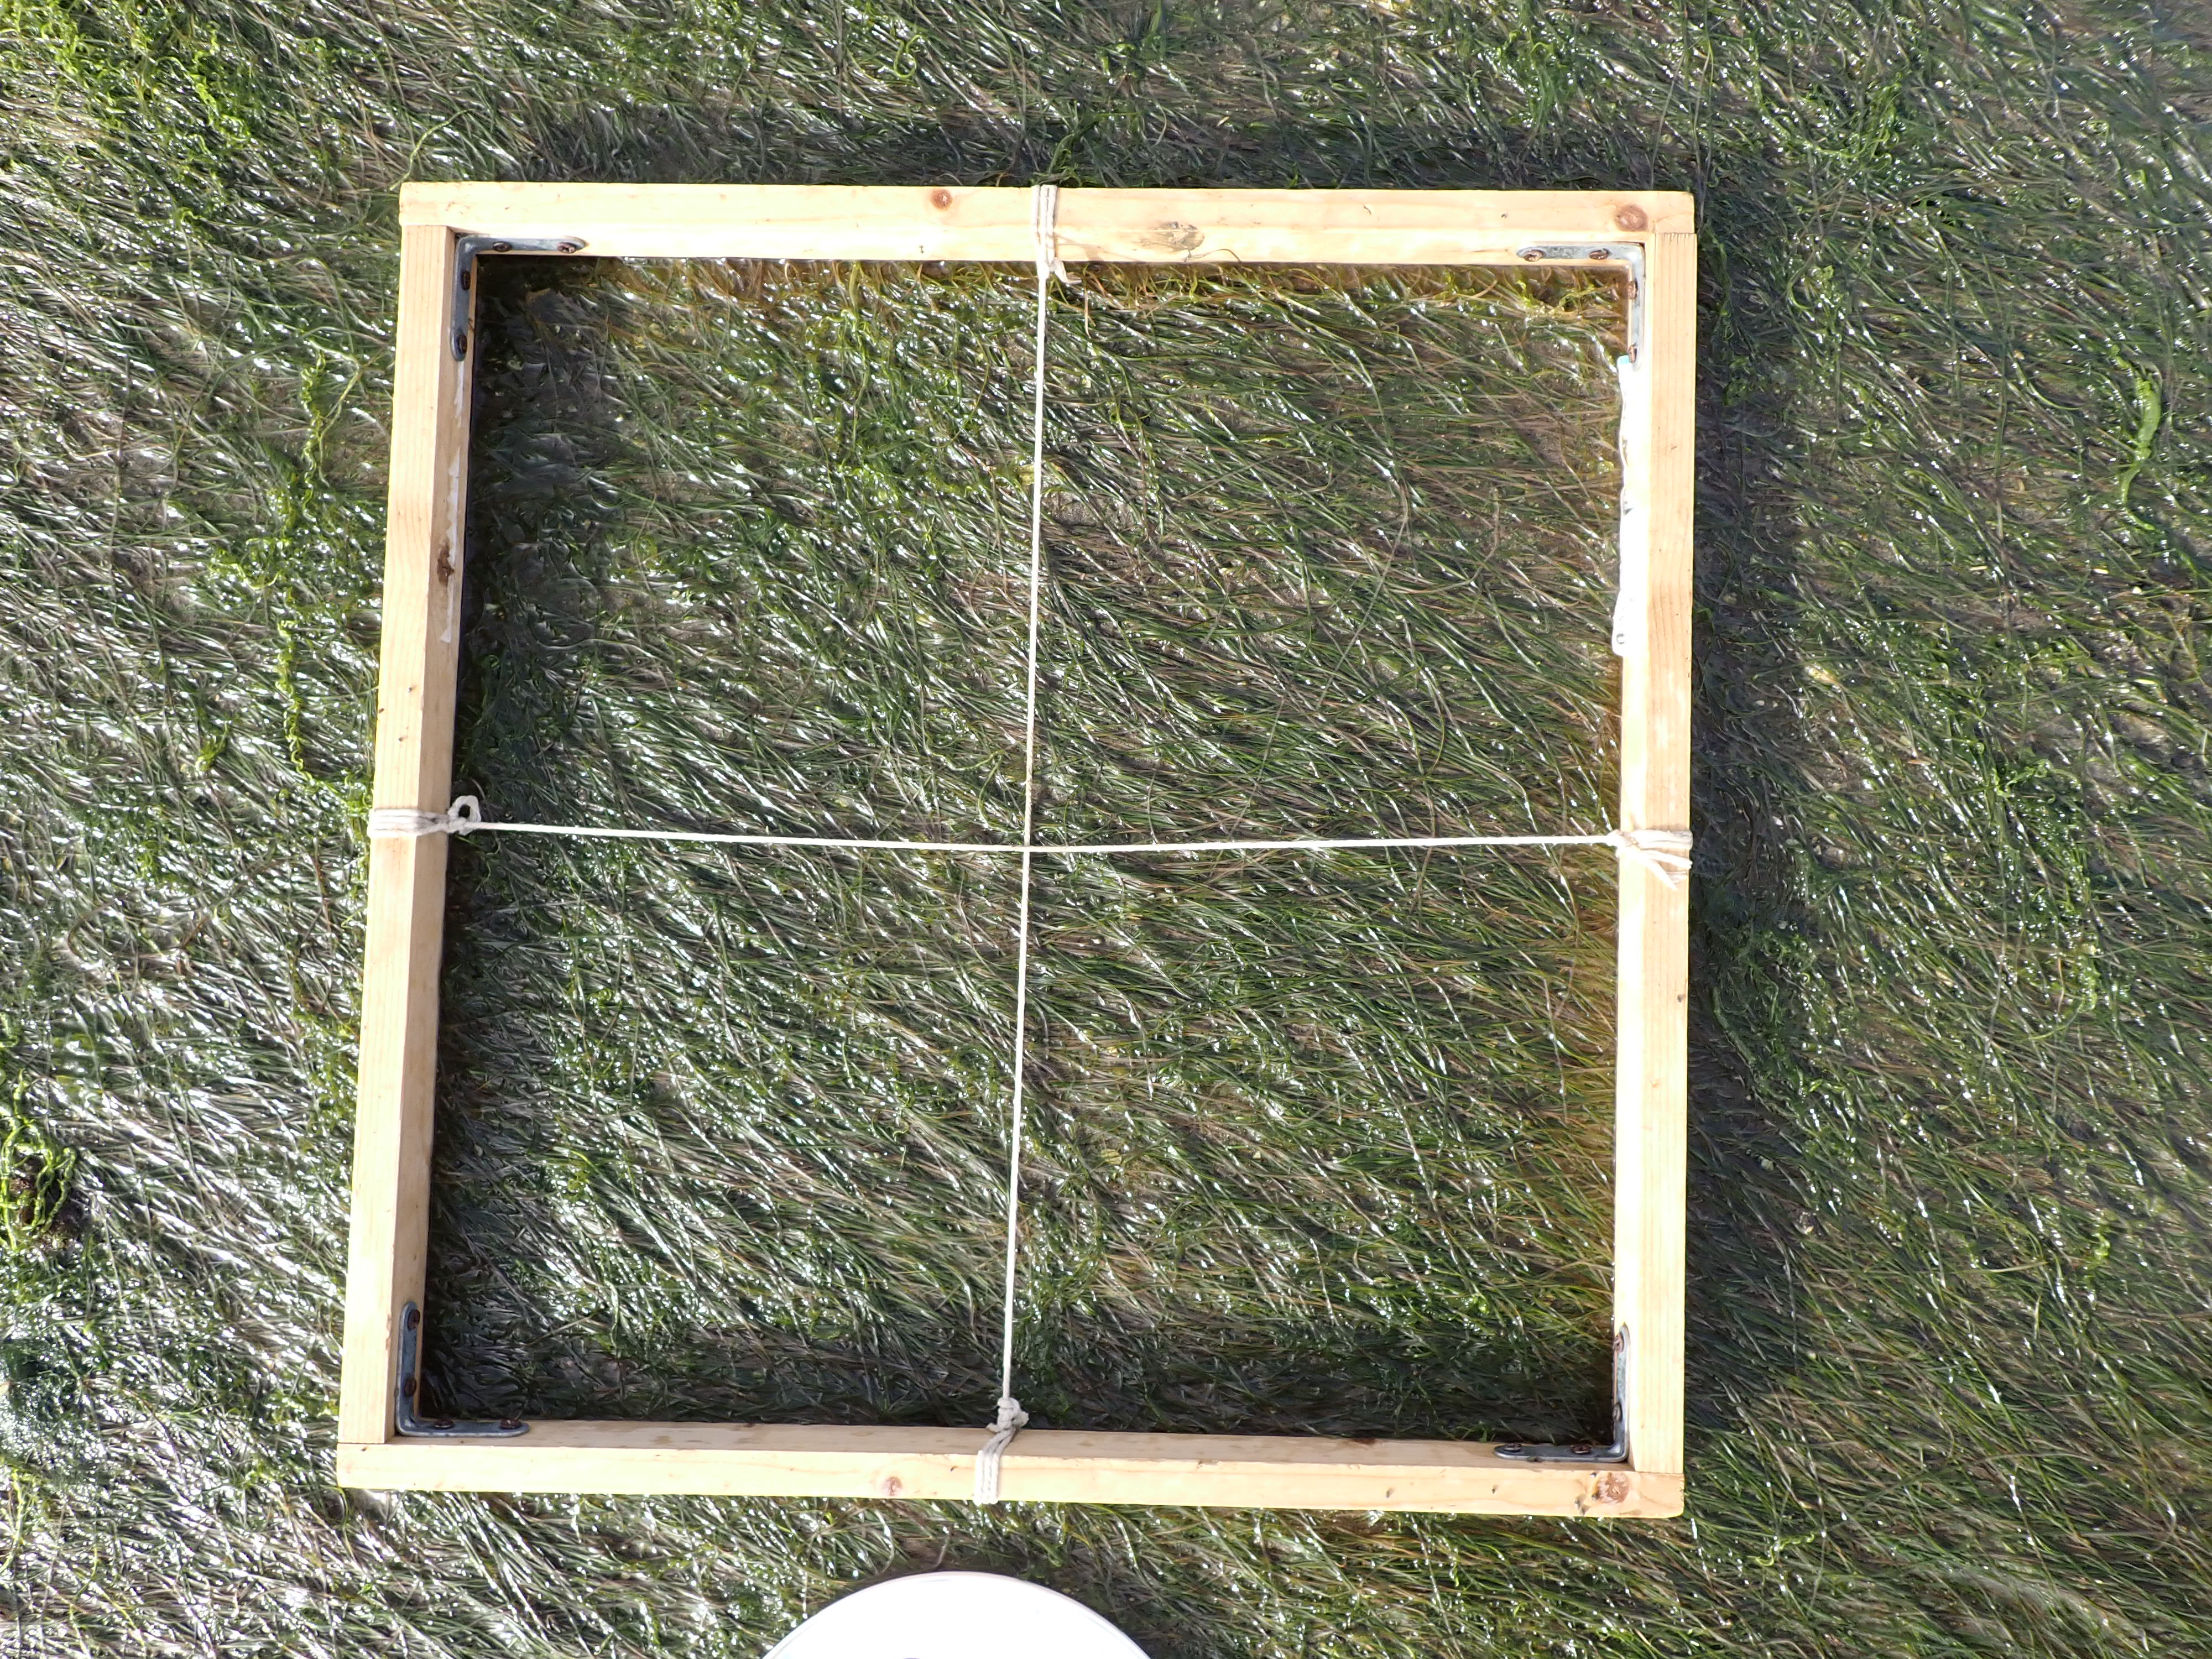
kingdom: Plantae
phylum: Tracheophyta
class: Liliopsida
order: Alismatales
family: Zosteraceae
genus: Zostera
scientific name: Zostera noltii
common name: Dwarf eelgrass
